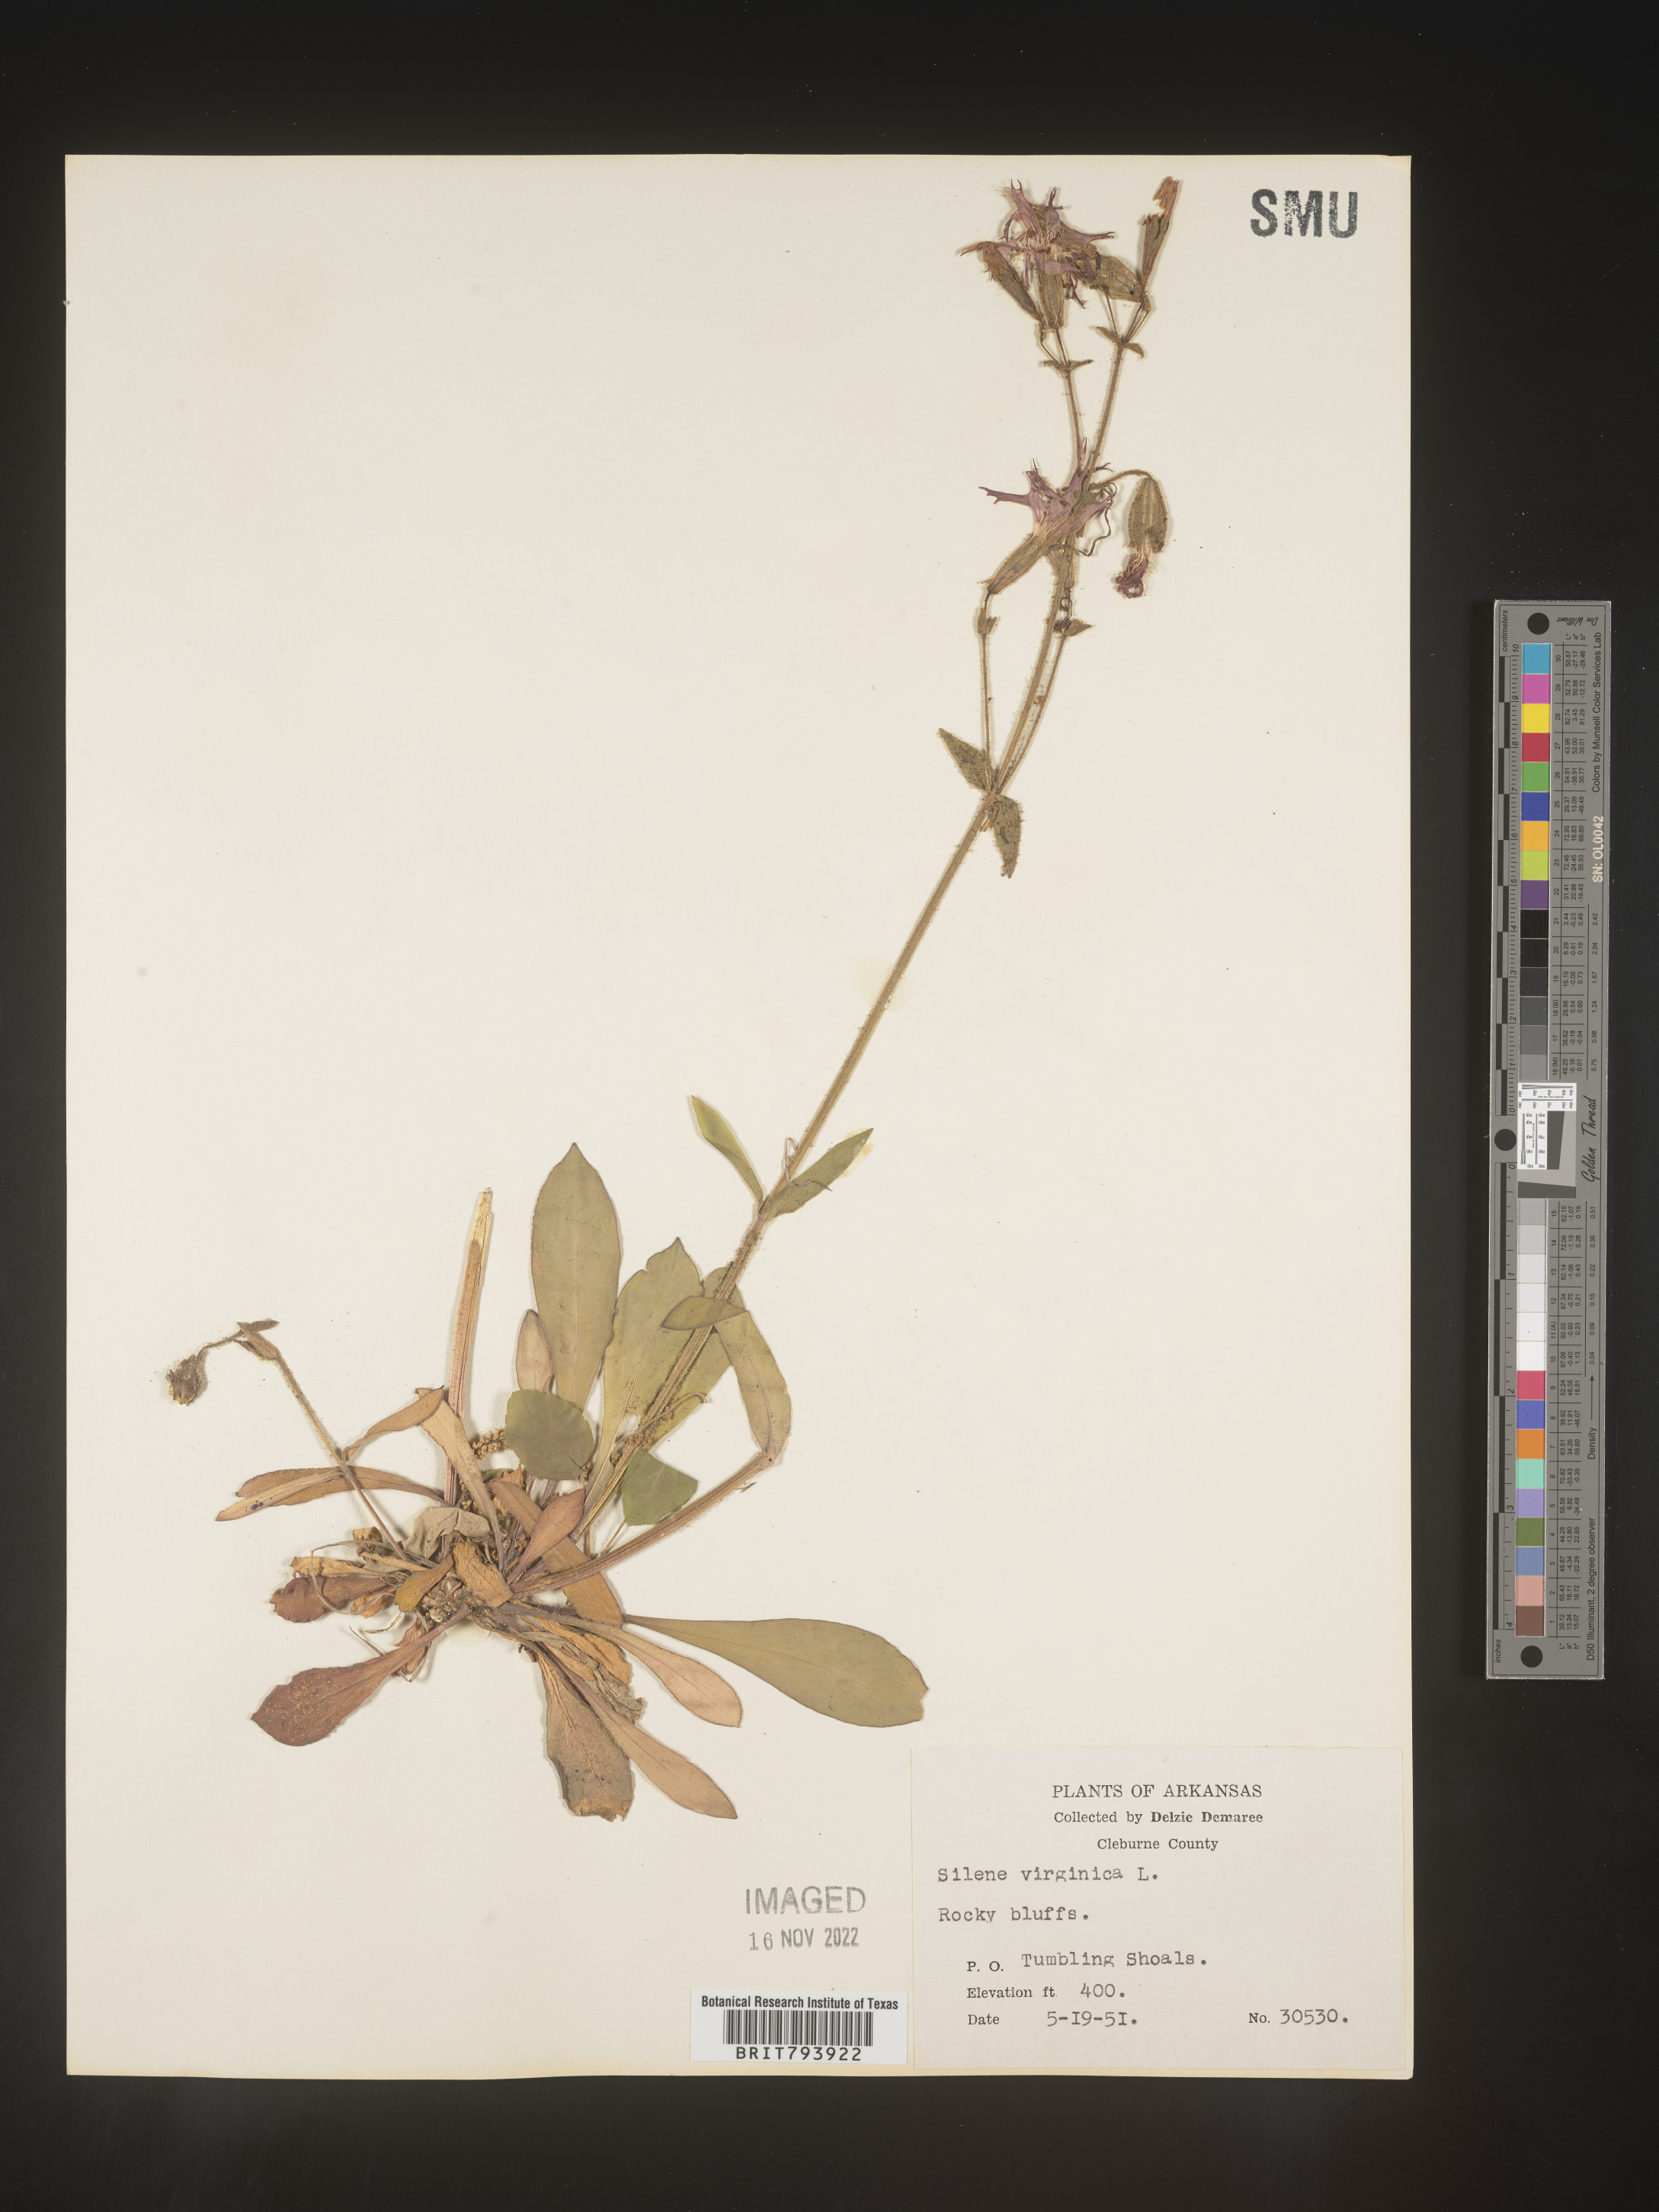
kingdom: Plantae
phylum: Tracheophyta
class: Magnoliopsida
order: Caryophyllales
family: Caryophyllaceae
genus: Silene
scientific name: Silene virginica
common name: Fire-pink
